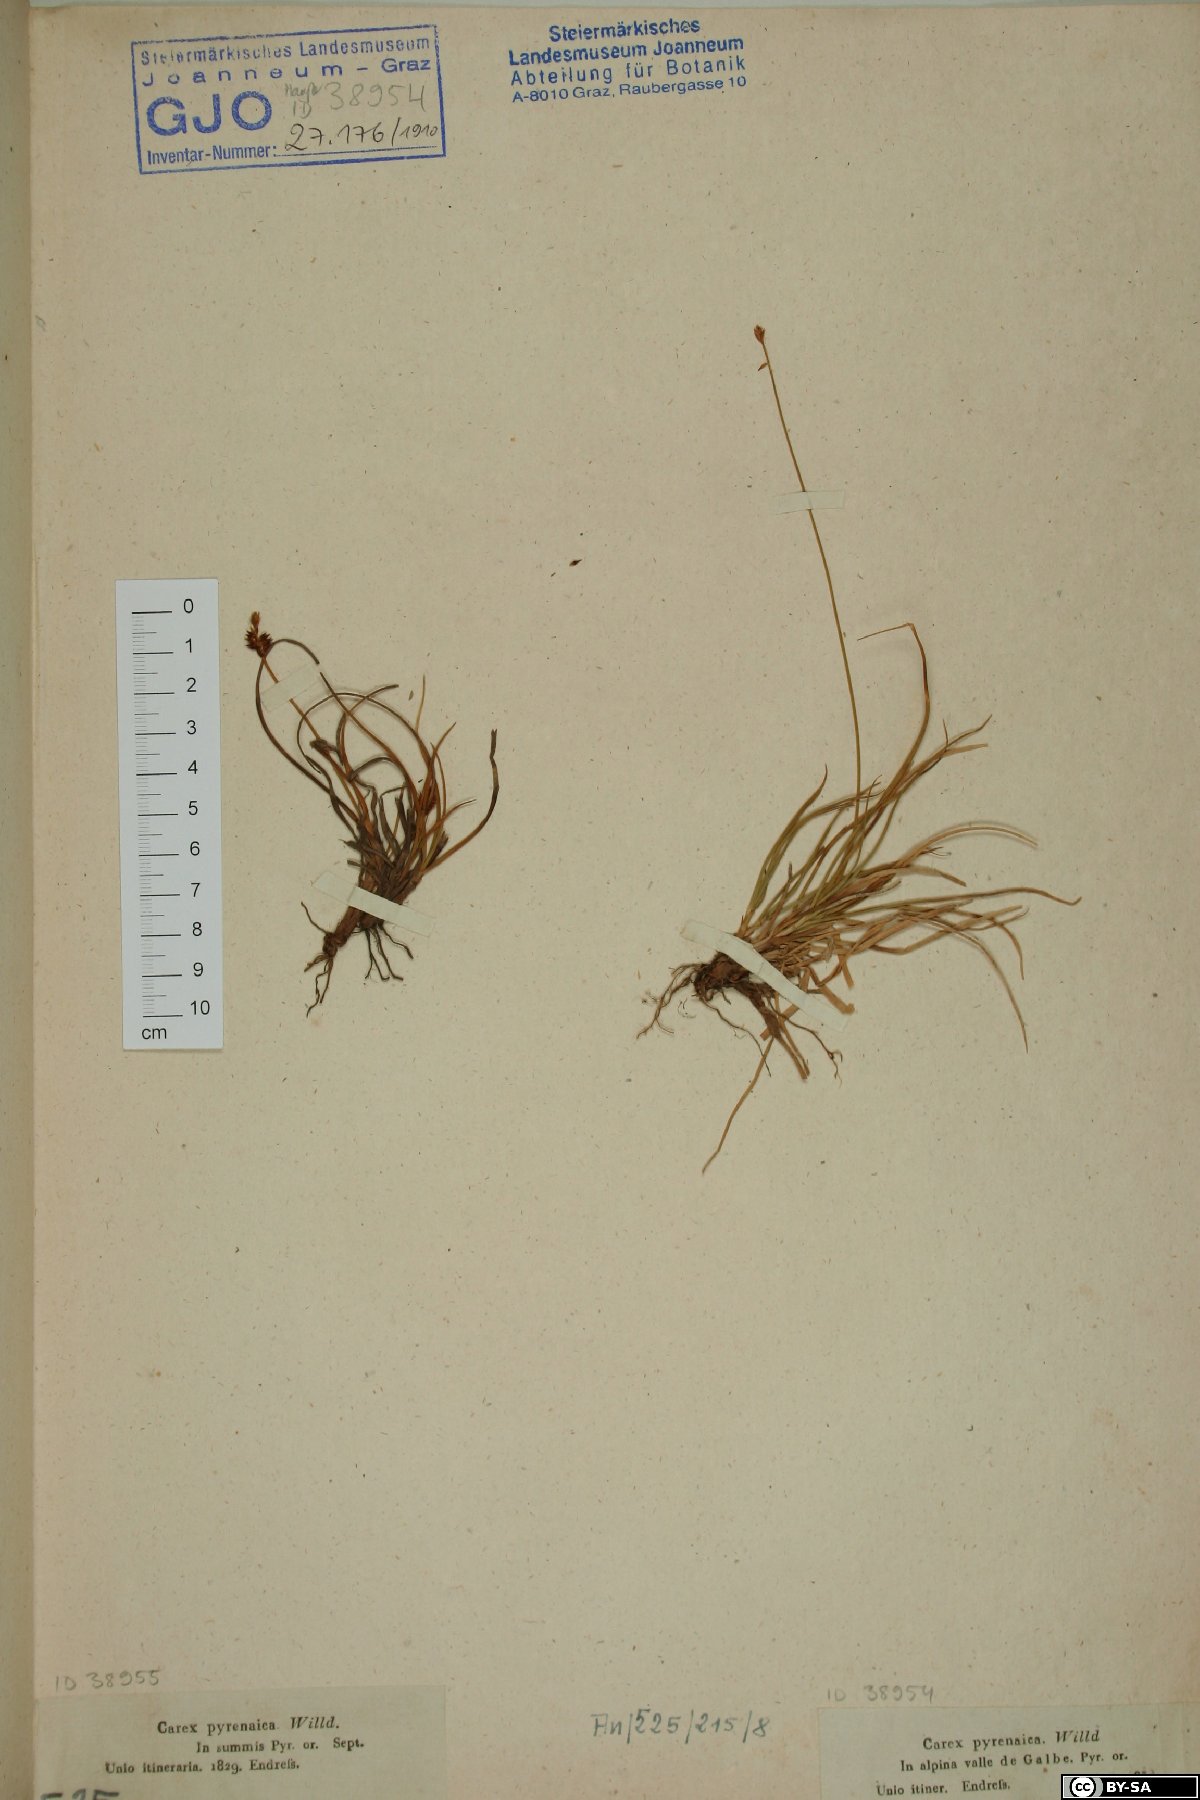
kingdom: Plantae
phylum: Tracheophyta
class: Liliopsida
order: Poales
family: Cyperaceae
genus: Carex
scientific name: Carex pyrenaica
